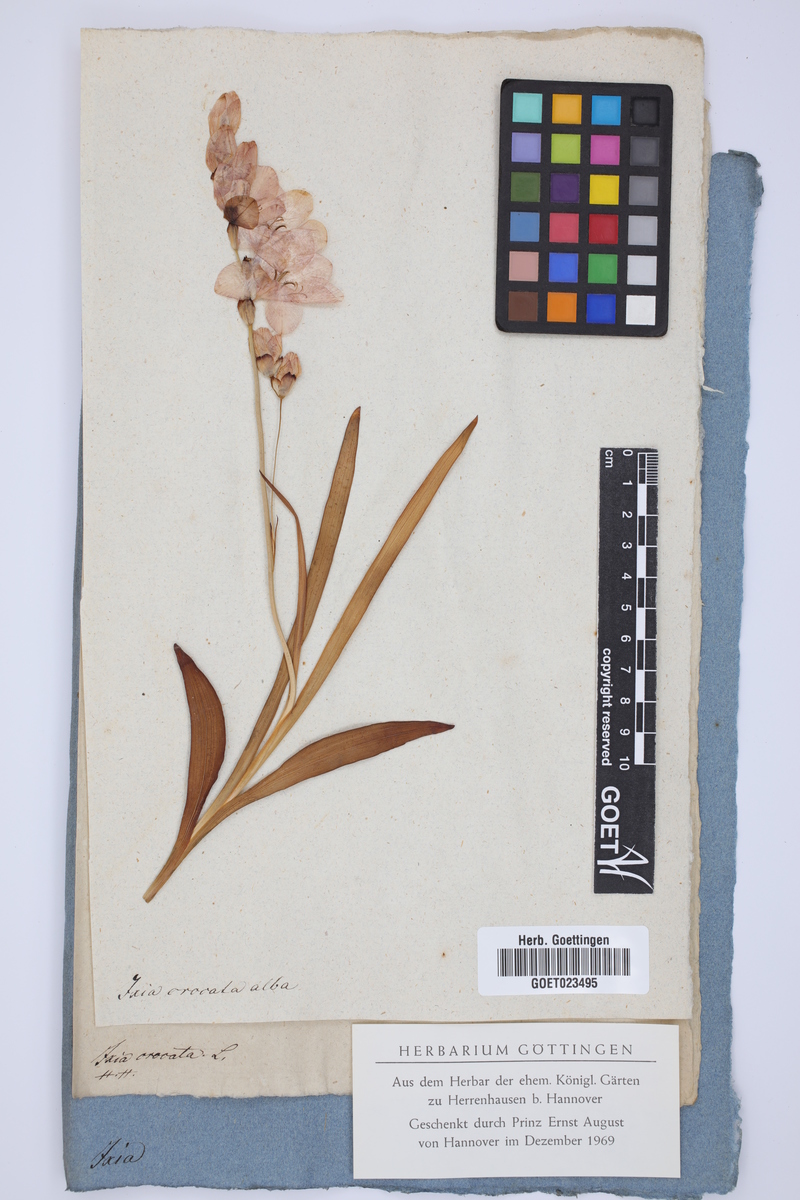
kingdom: Plantae
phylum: Tracheophyta
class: Liliopsida
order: Asparagales
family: Iridaceae
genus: Tritonia
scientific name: Tritonia crocata
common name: Flame-freesia
